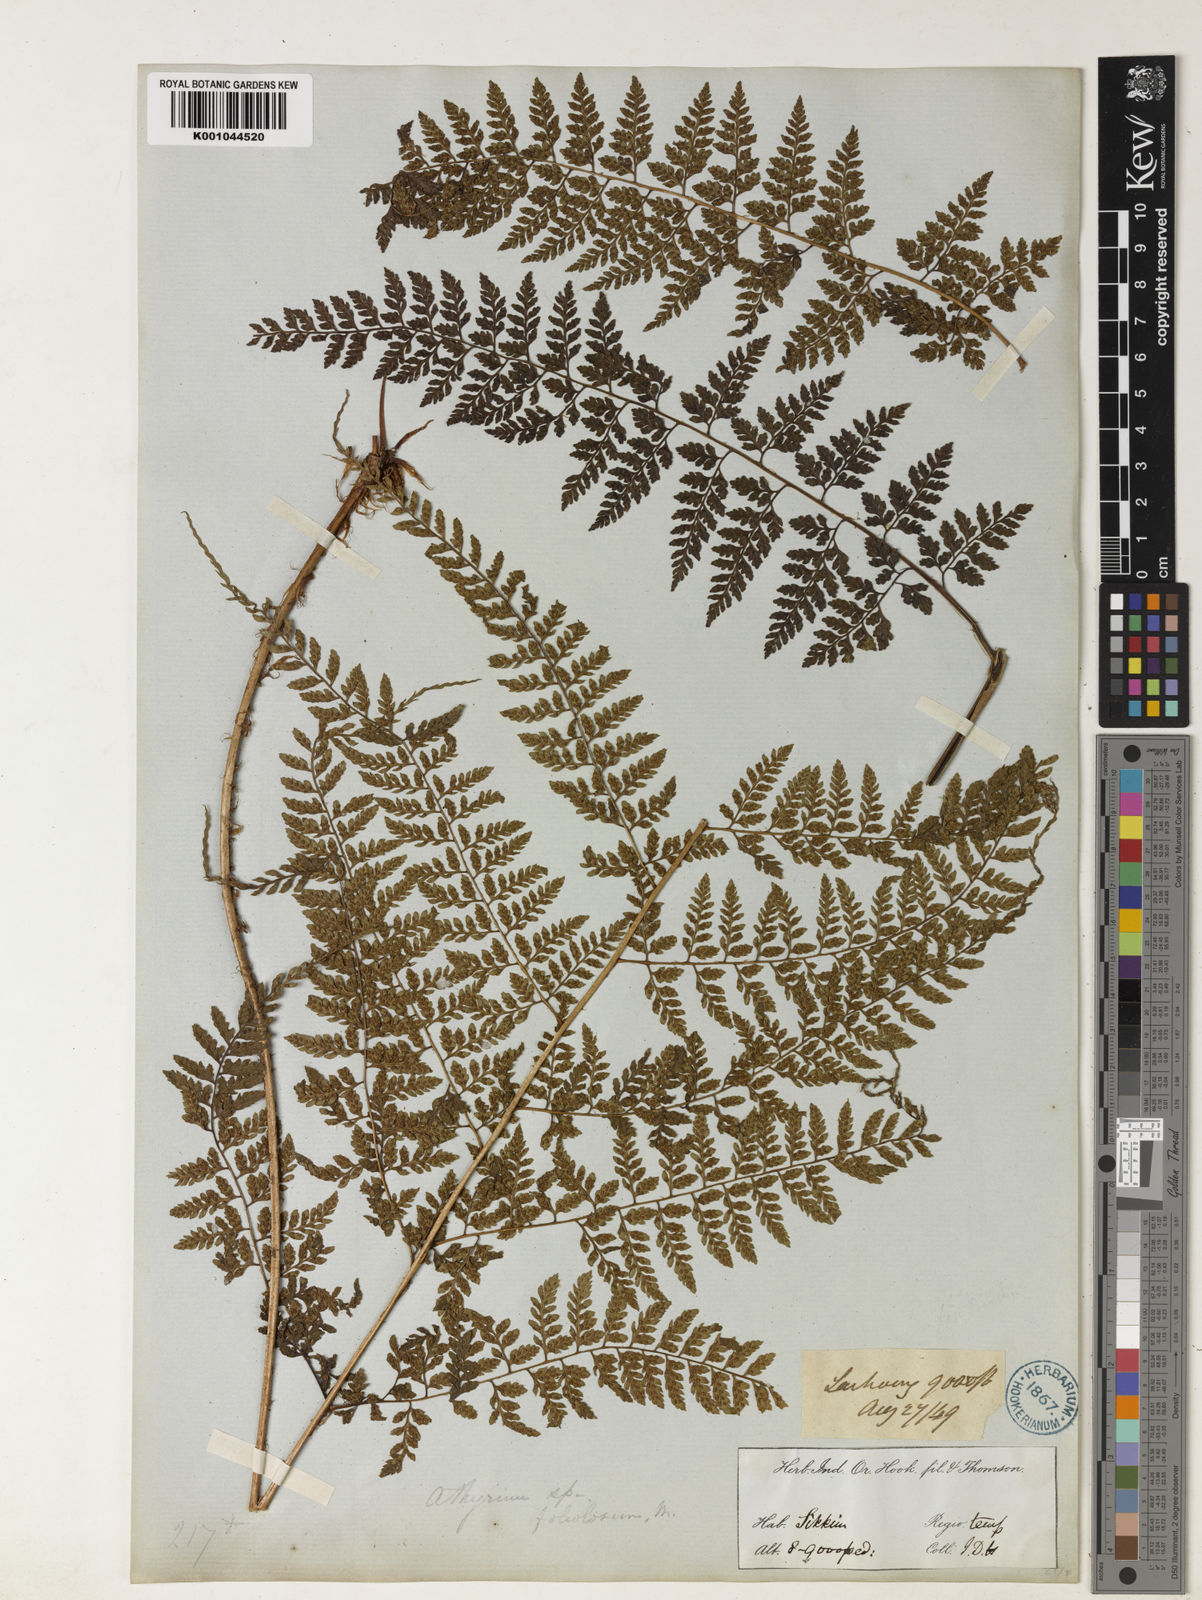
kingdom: Plantae
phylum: Tracheophyta
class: Polypodiopsida
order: Polypodiales
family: Athyriaceae
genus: Athyrium
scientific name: Athyrium fimbriatum
